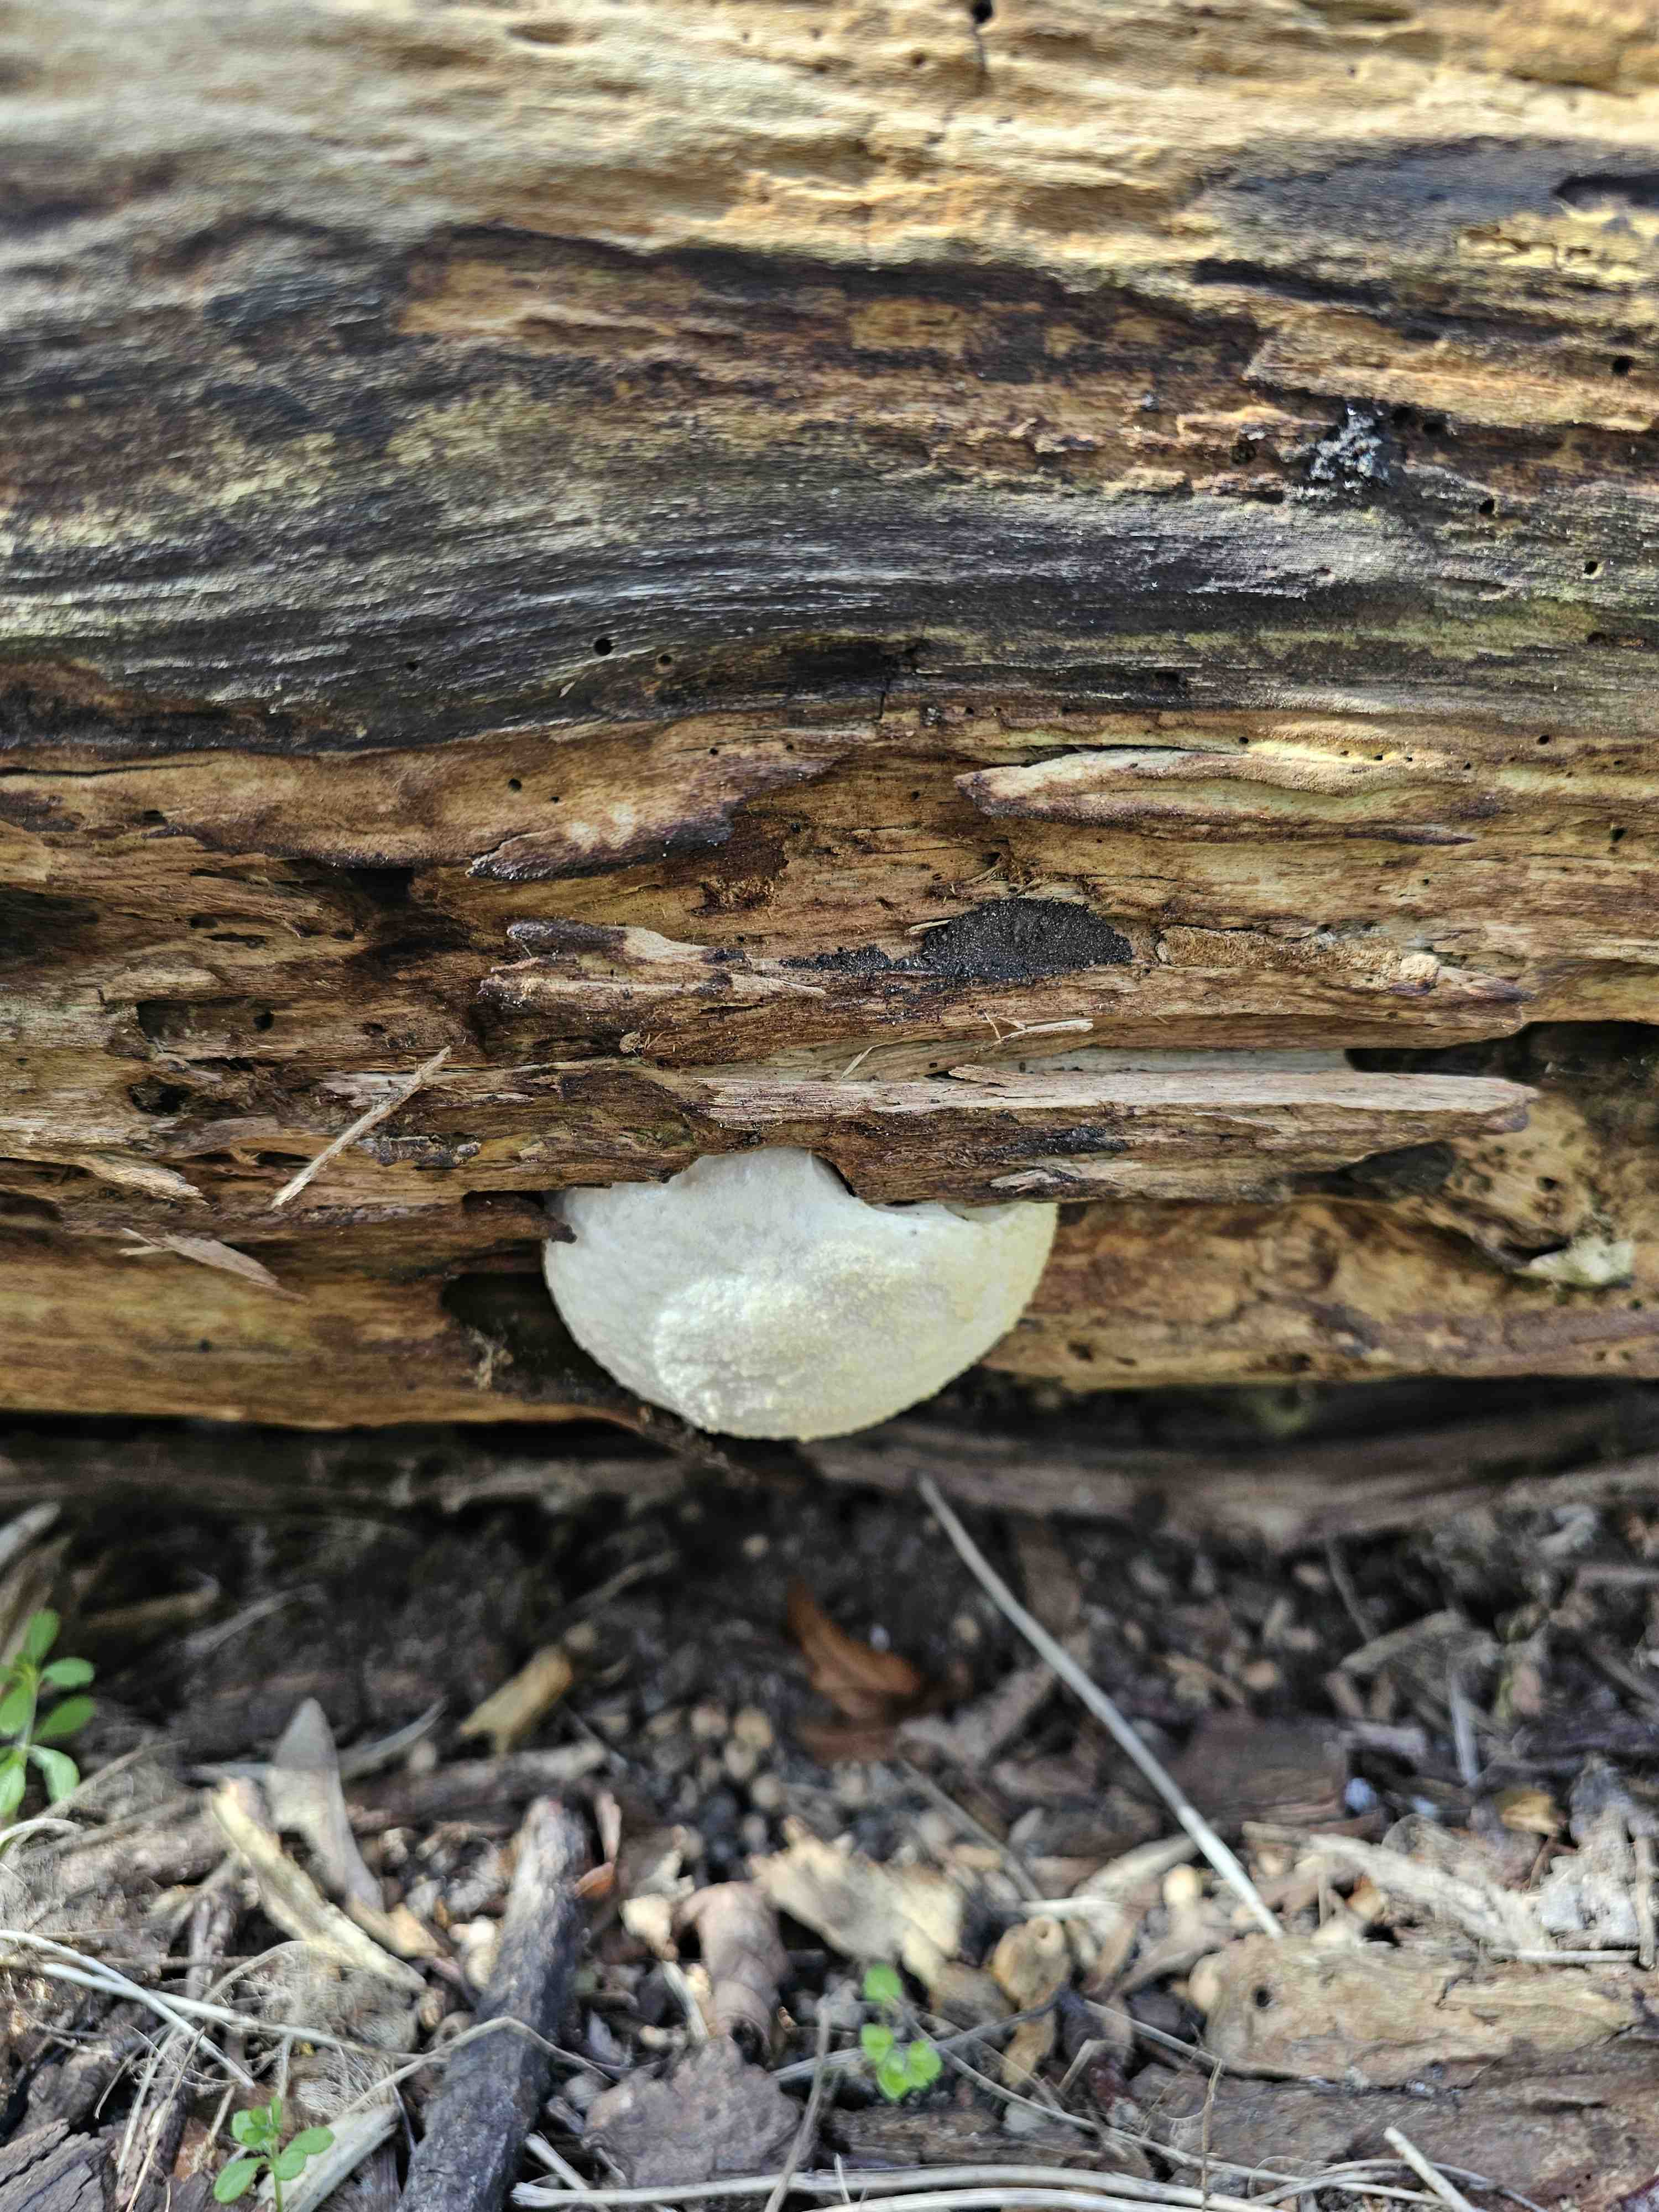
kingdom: Protozoa
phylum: Mycetozoa
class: Myxomycetes
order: Cribrariales
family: Tubiferaceae
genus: Reticularia
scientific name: Reticularia lycoperdon
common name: skinnende støvpude
